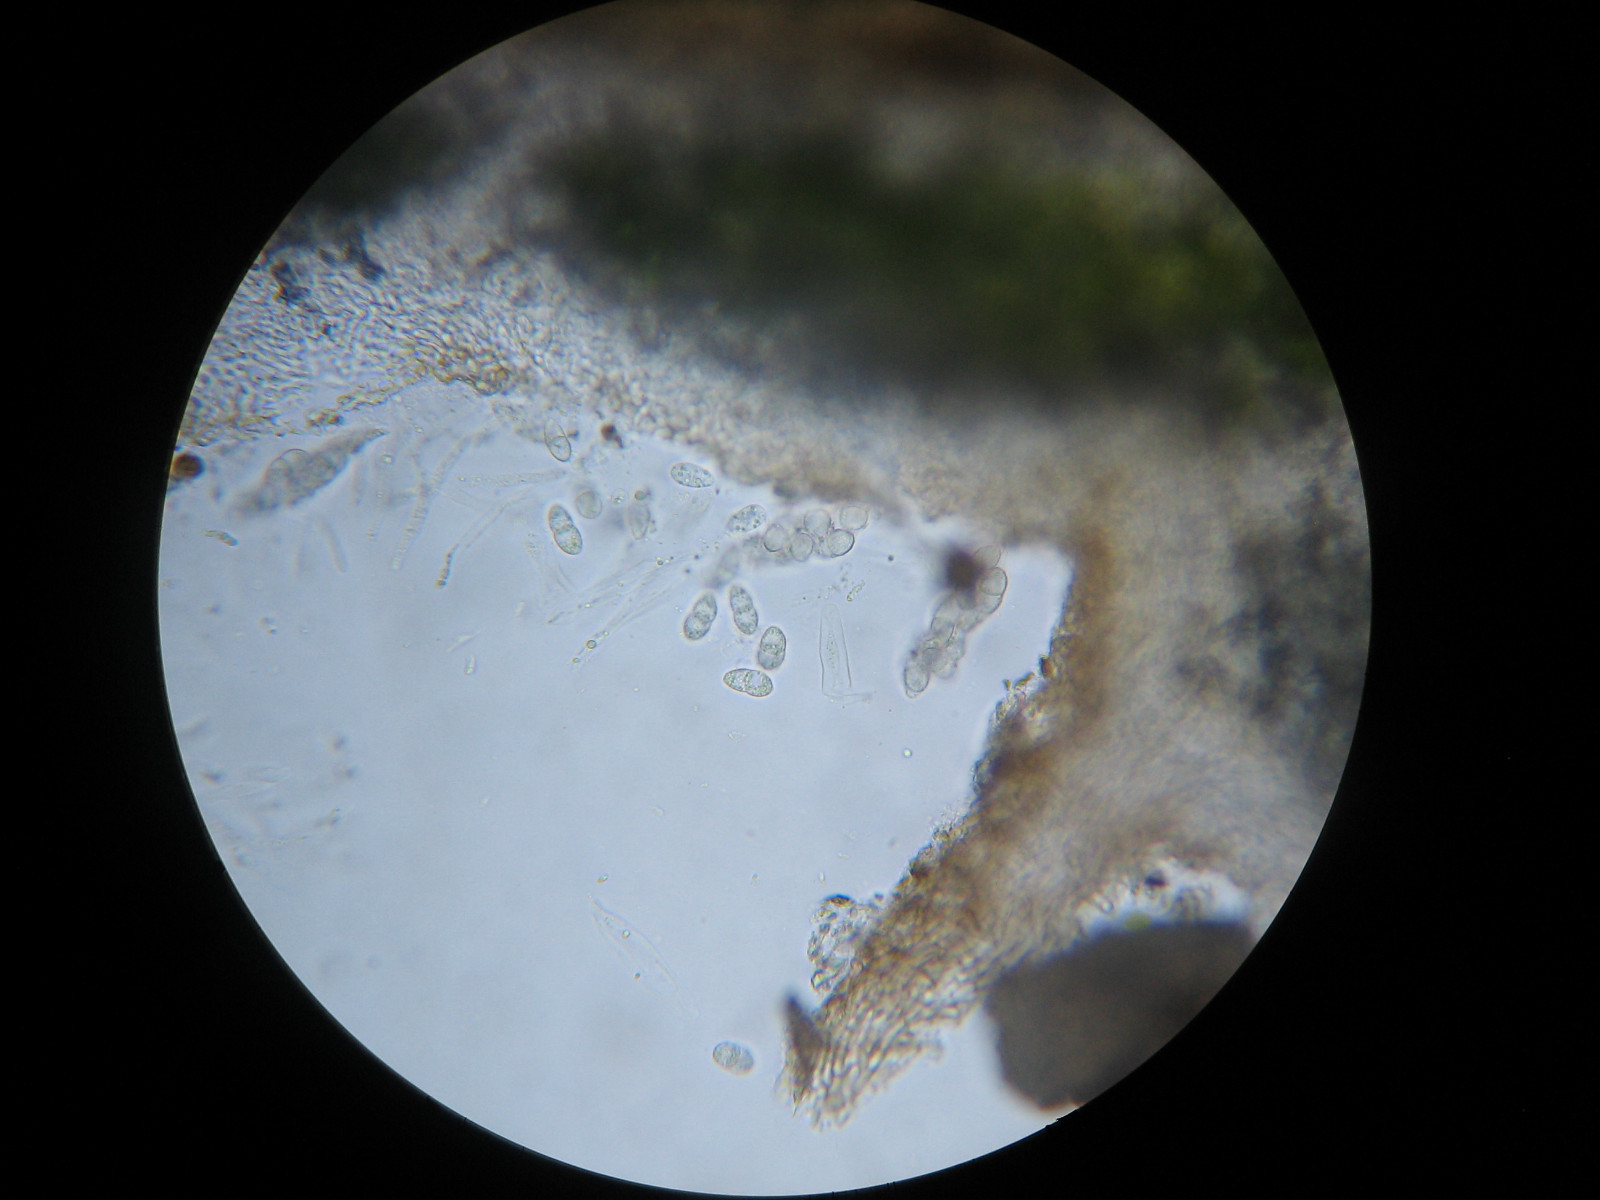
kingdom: Fungi
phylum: Ascomycota
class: Sordariomycetes
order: Phyllachorales
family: Phyllachoraceae
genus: Lichenochora
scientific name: Lichenochora obscuroides
